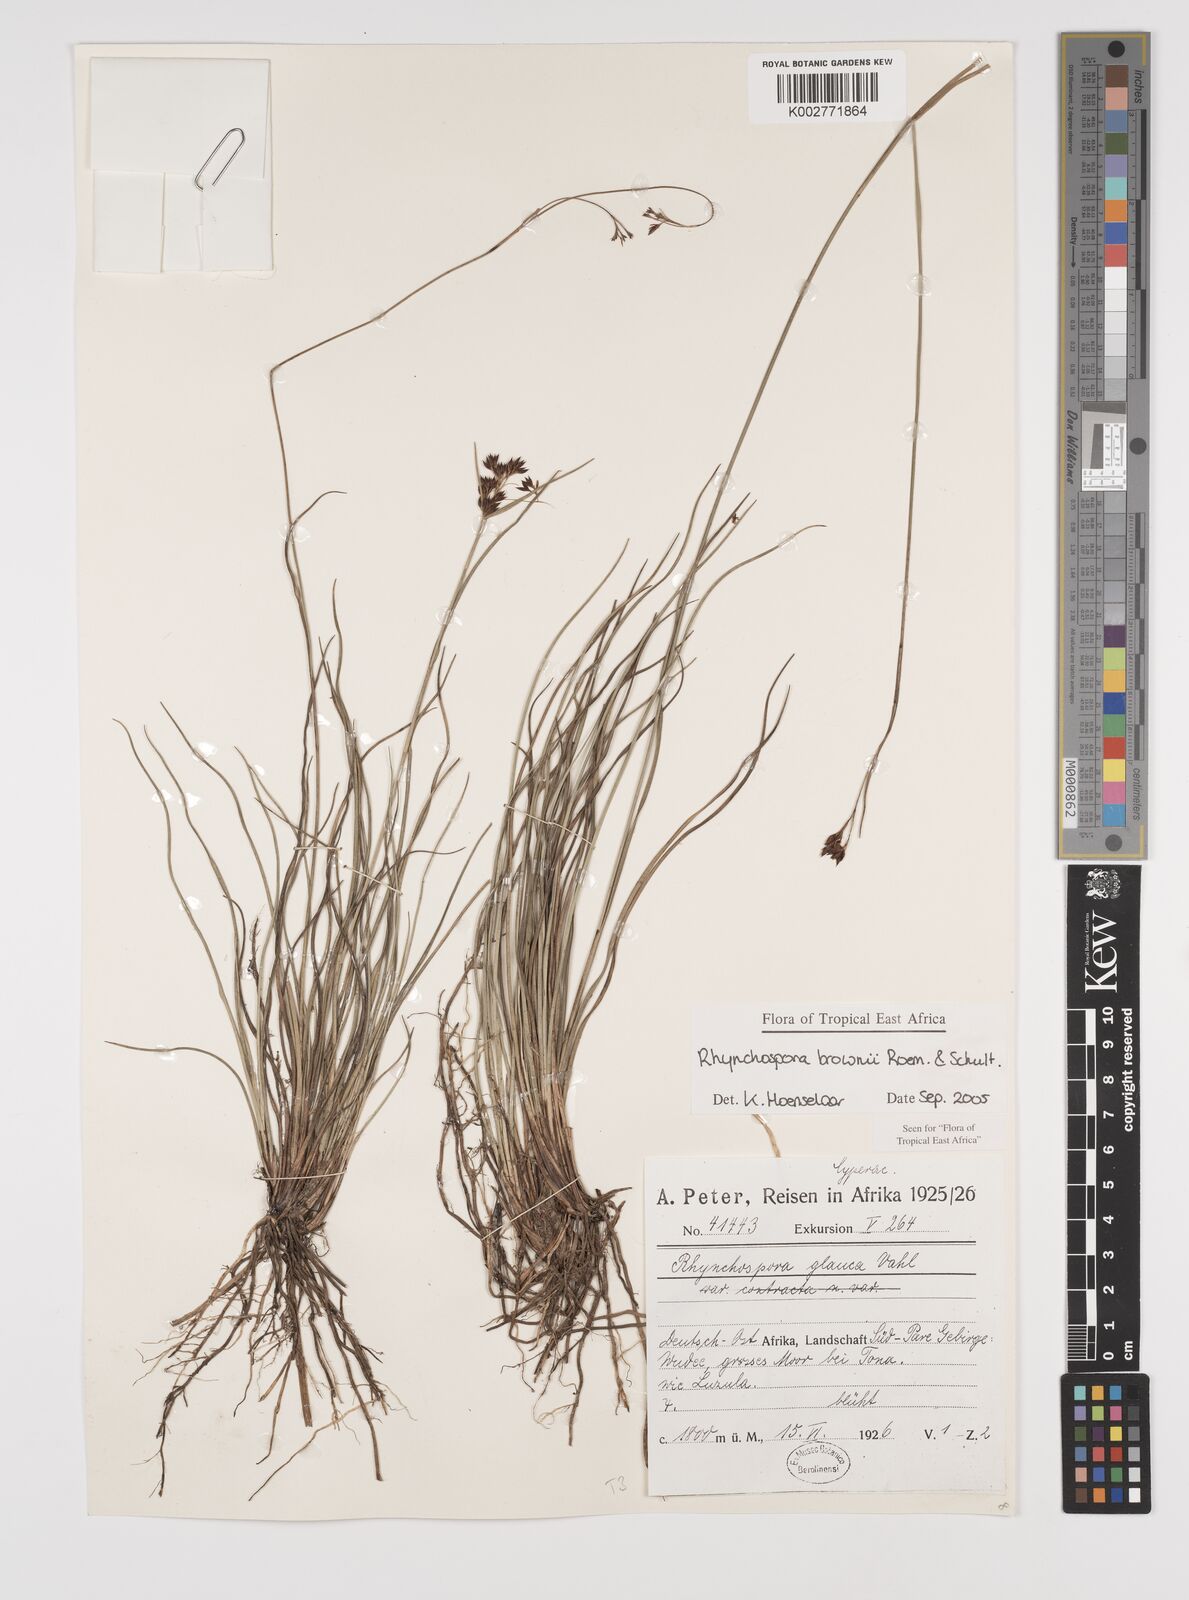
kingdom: Plantae
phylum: Tracheophyta
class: Liliopsida
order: Poales
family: Cyperaceae
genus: Rhynchospora
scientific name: Rhynchospora brownii
